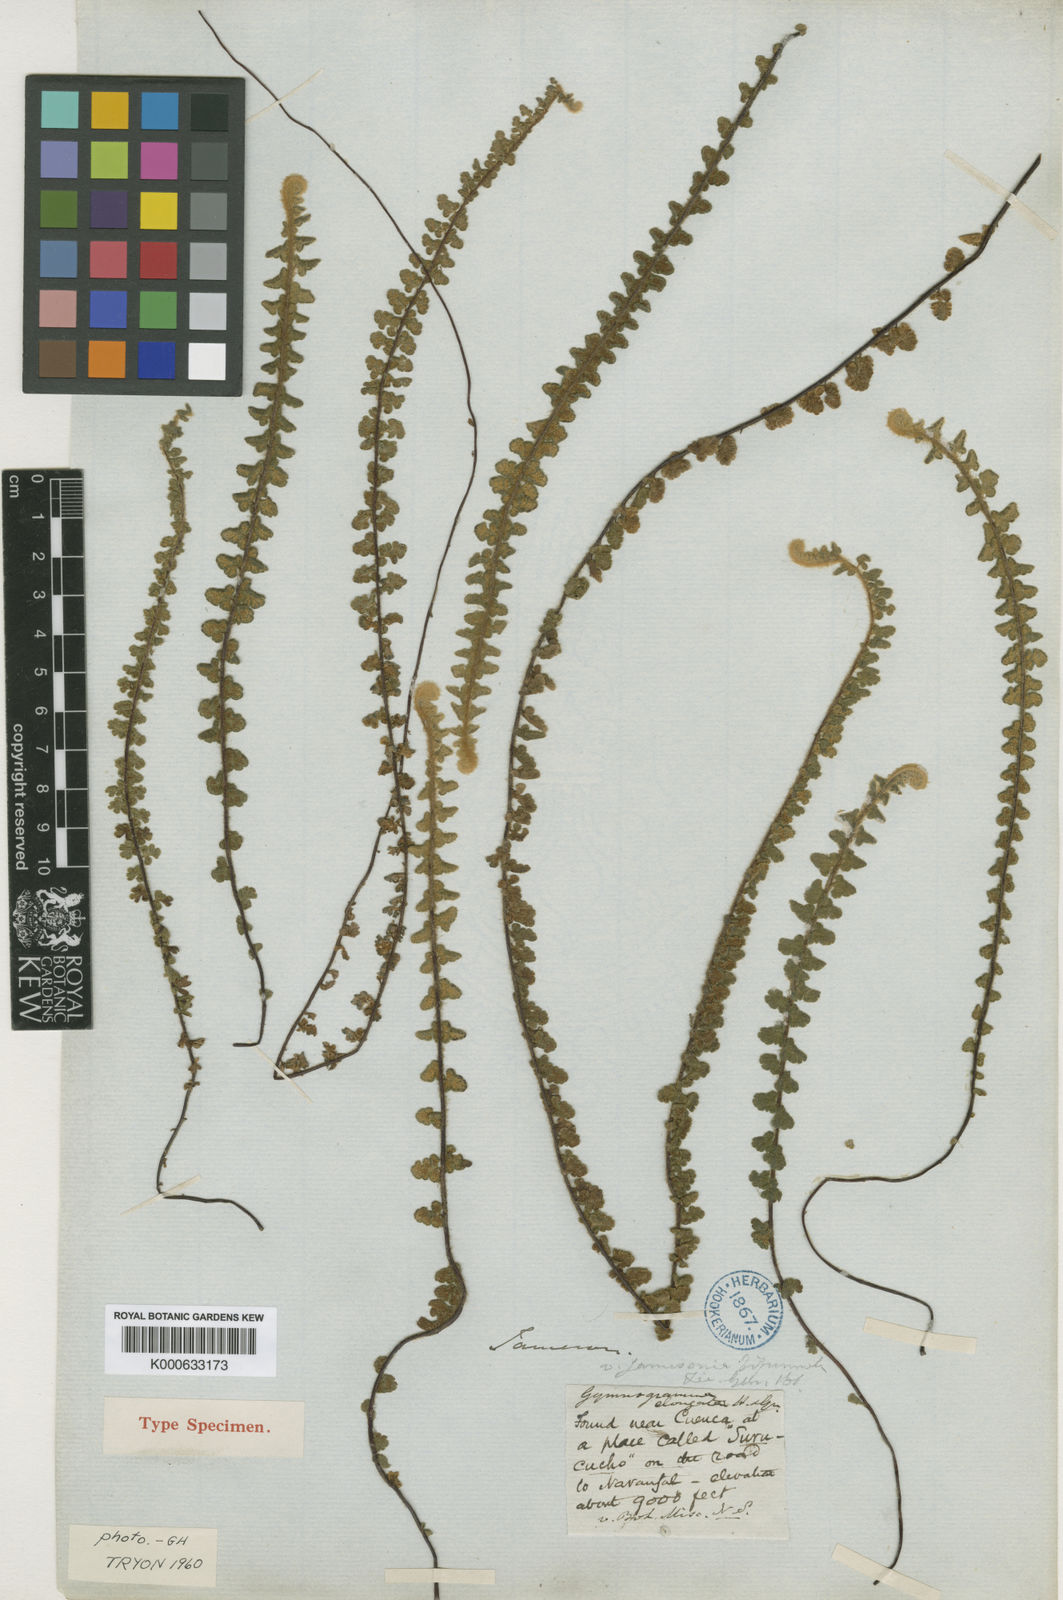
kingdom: Plantae
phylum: Tracheophyta
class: Polypodiopsida
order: Polypodiales
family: Pteridaceae
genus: Jamesonia
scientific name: Jamesonia elongata
